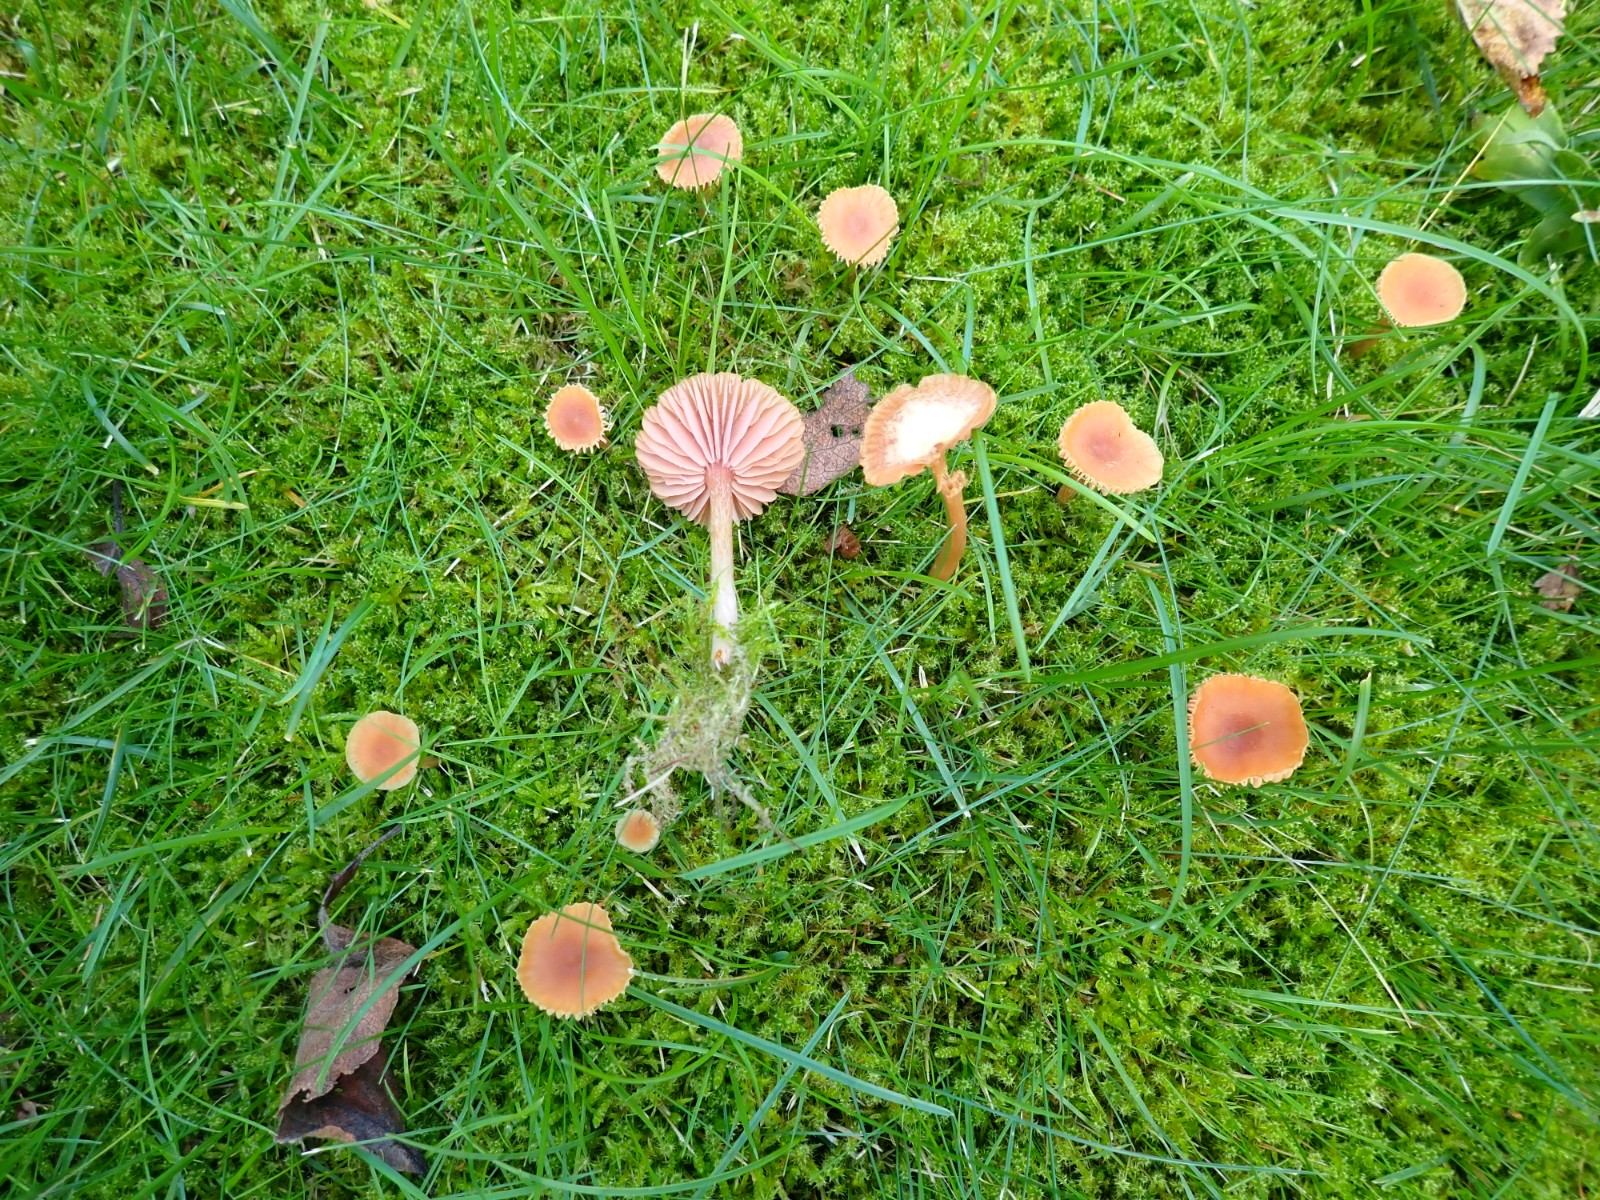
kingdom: Fungi
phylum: Basidiomycota
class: Agaricomycetes
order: Agaricales
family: Hydnangiaceae
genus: Laccaria
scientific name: Laccaria laccata
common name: rød ametysthat
